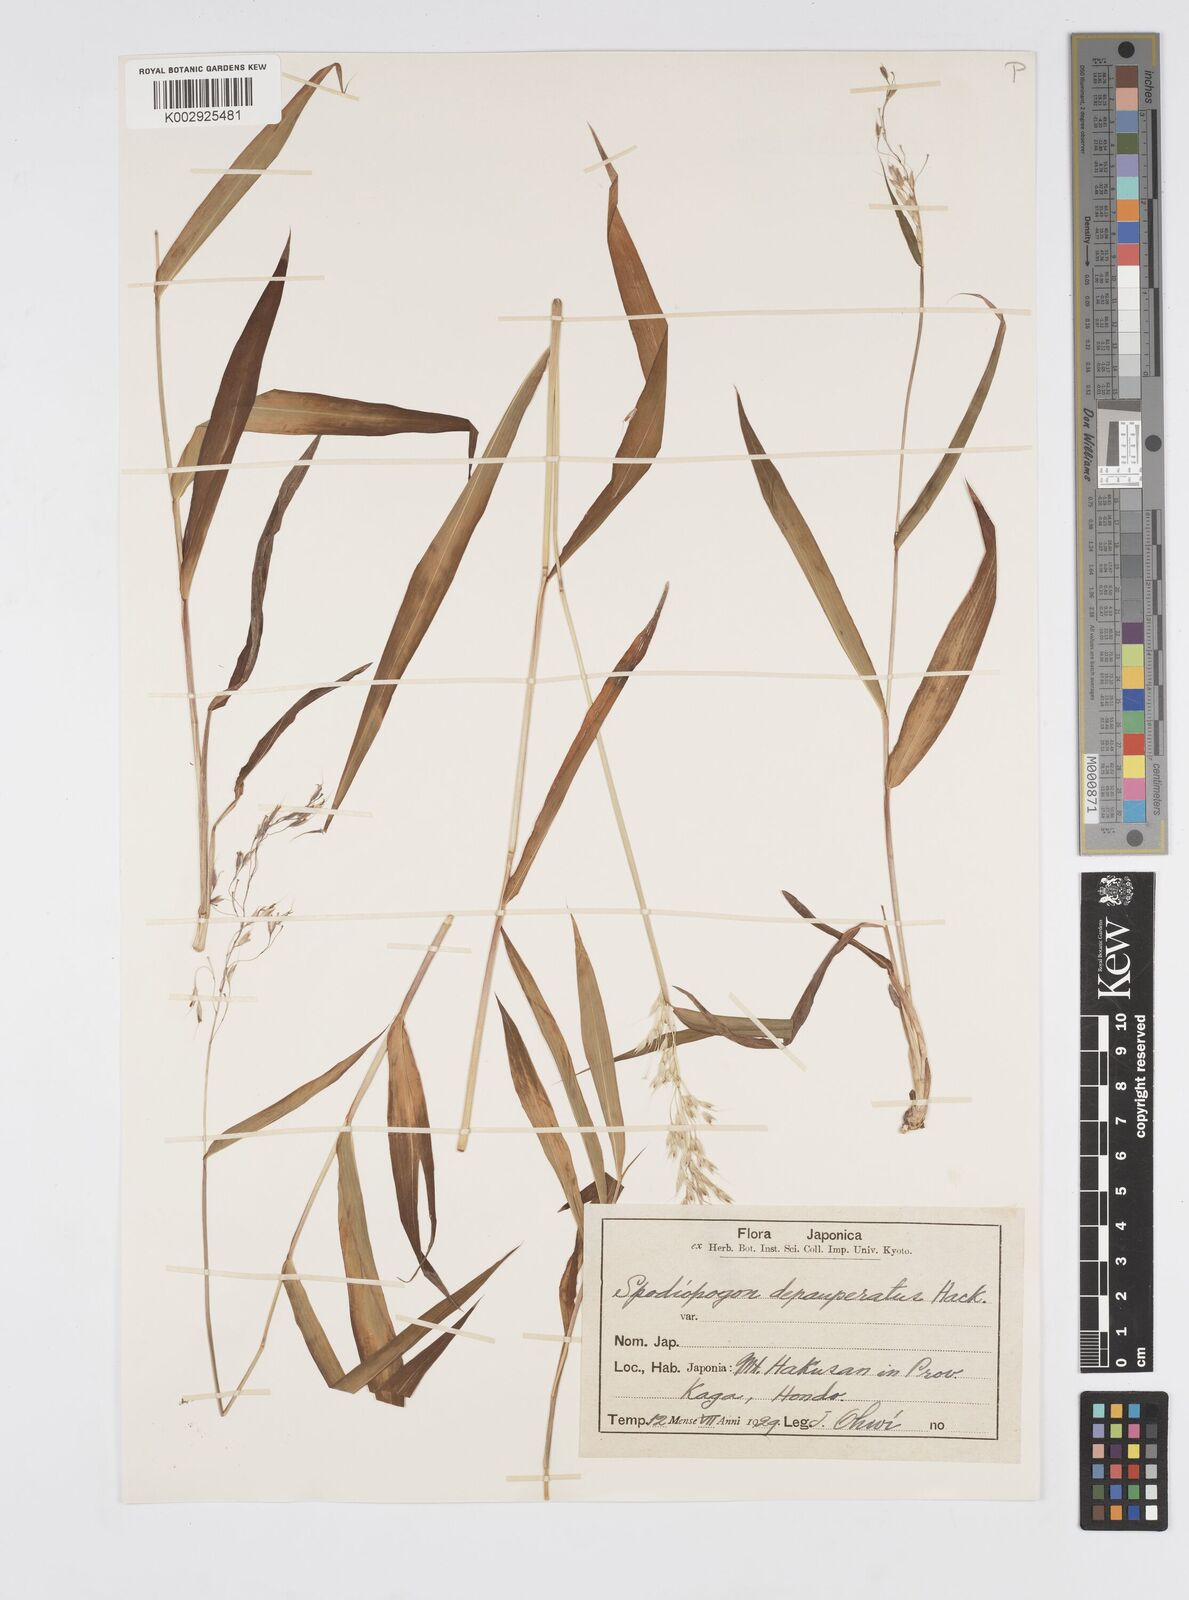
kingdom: Plantae
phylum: Tracheophyta
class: Liliopsida
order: Poales
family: Poaceae
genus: Spodiopogon
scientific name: Spodiopogon depauperatus
